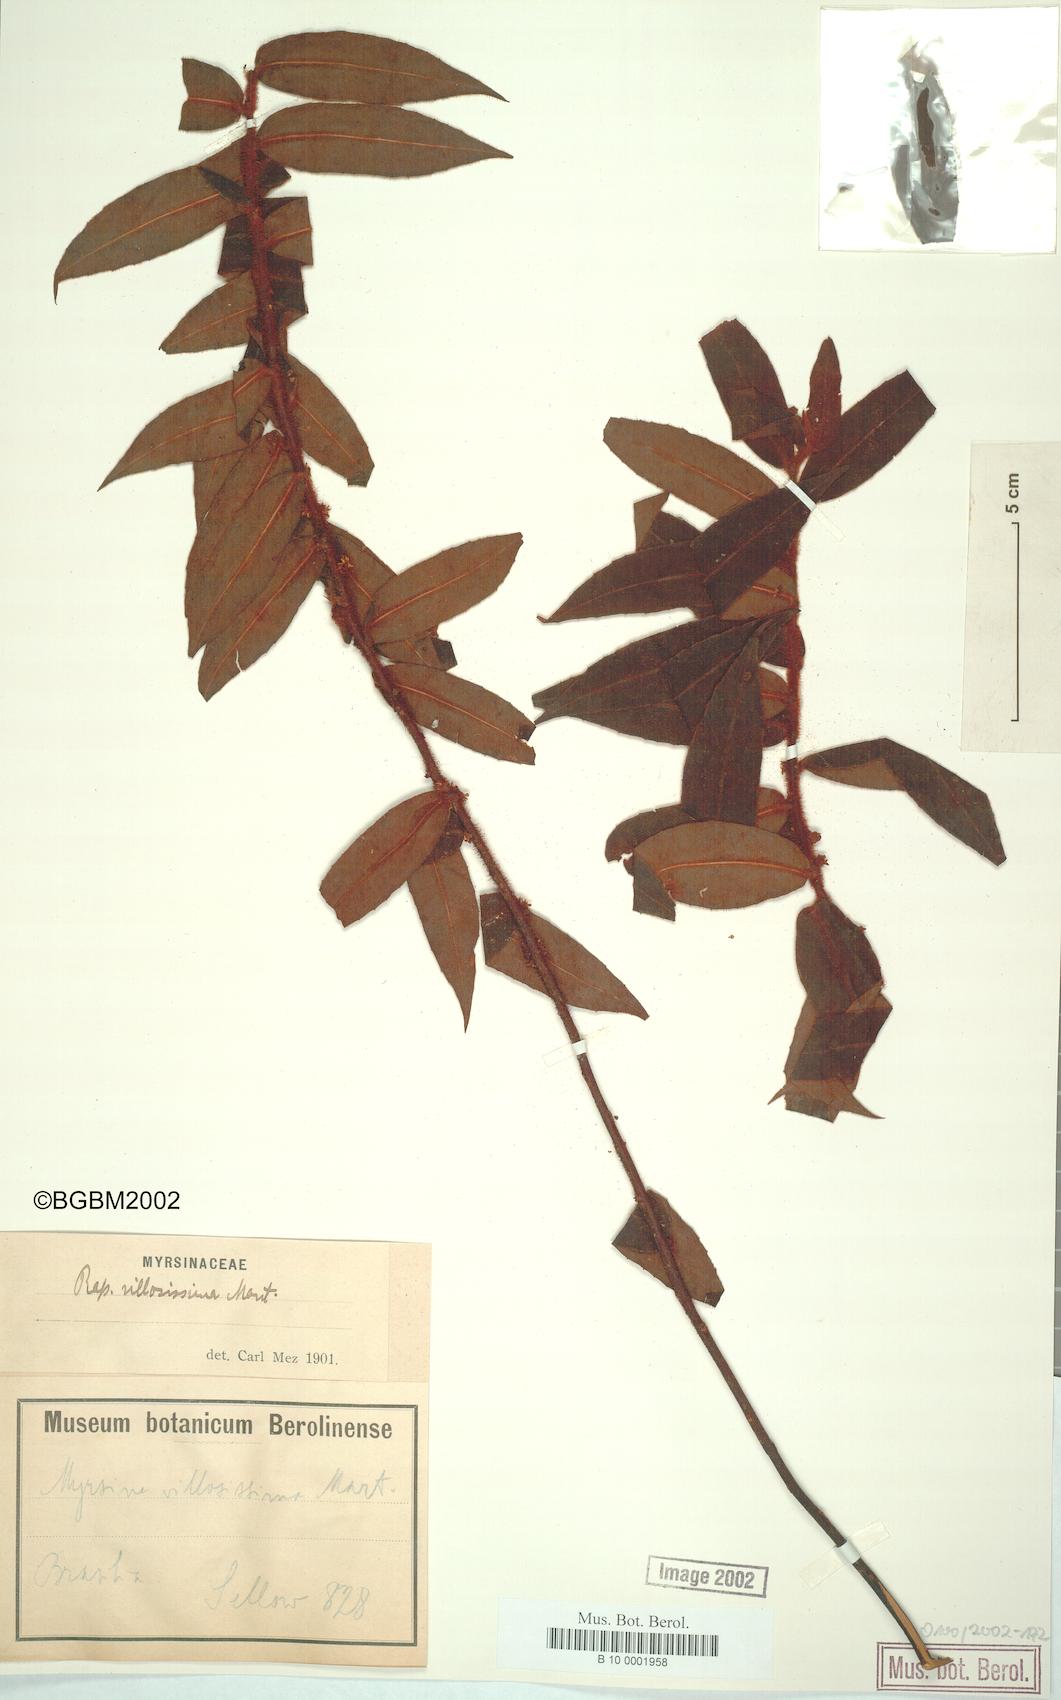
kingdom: Plantae
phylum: Tracheophyta
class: Magnoliopsida
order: Ericales
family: Primulaceae
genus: Myrsine
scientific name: Myrsine villosissima
